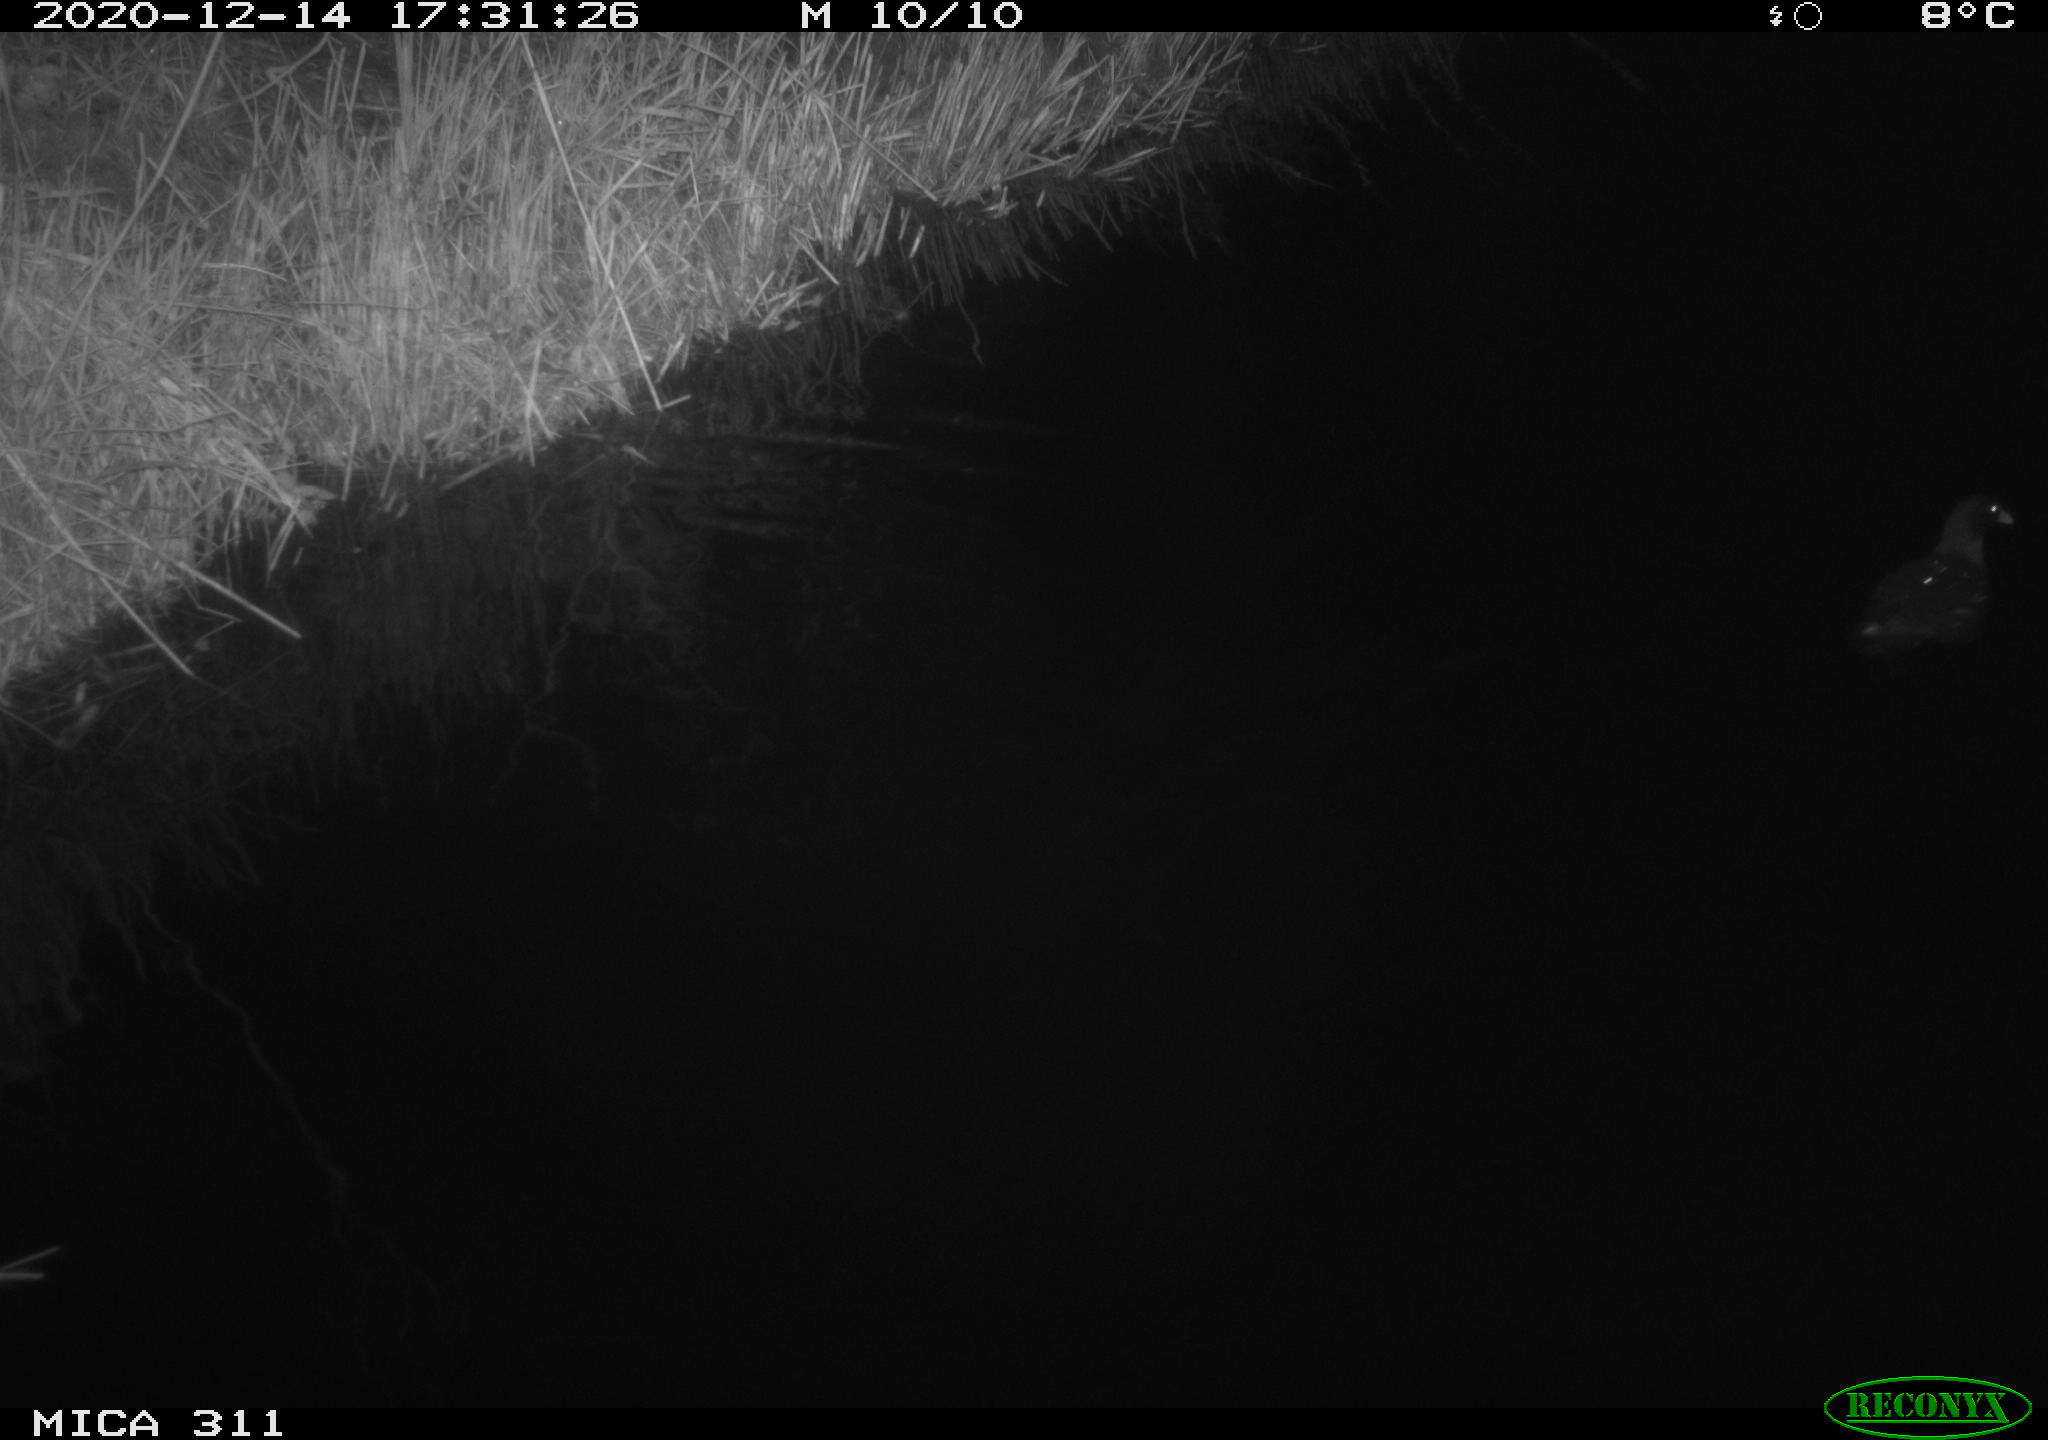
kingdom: Animalia
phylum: Chordata
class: Aves
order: Gruiformes
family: Rallidae
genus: Gallinula
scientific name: Gallinula chloropus
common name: Common moorhen
